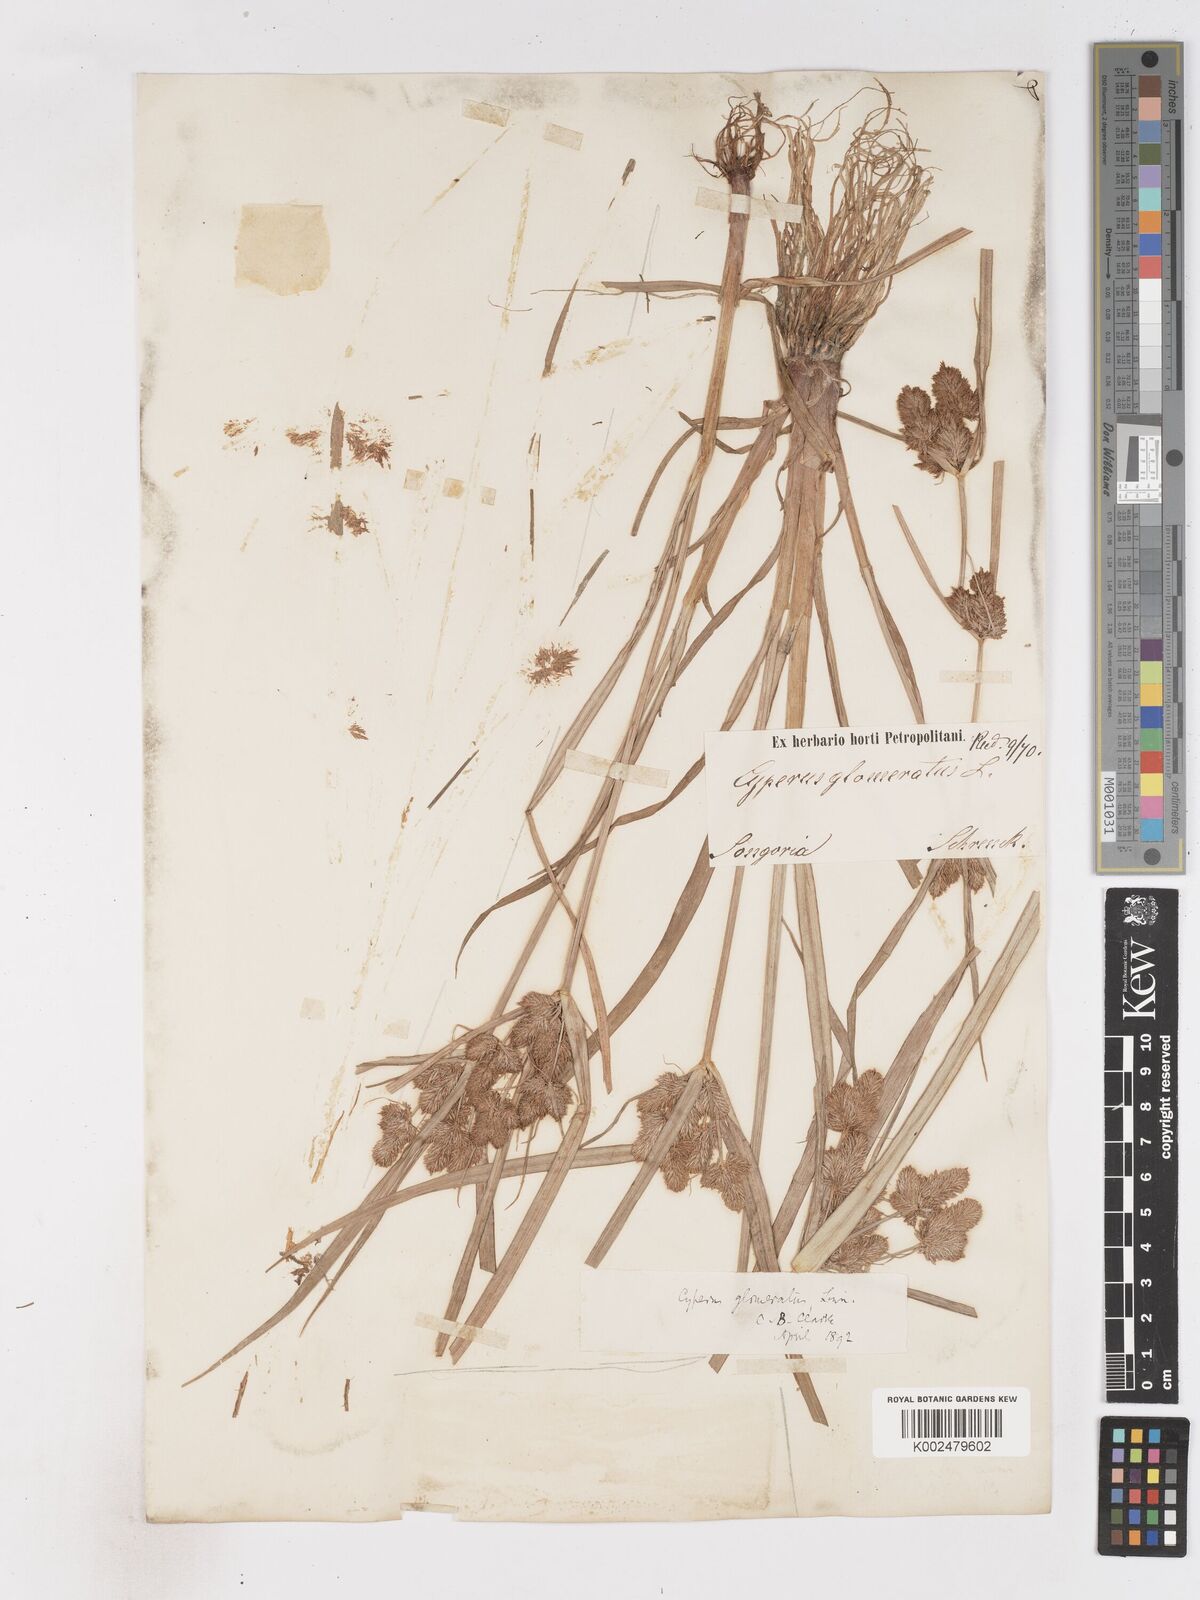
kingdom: Plantae
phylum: Tracheophyta
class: Liliopsida
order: Poales
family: Cyperaceae
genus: Cyperus
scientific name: Cyperus glomeratus
